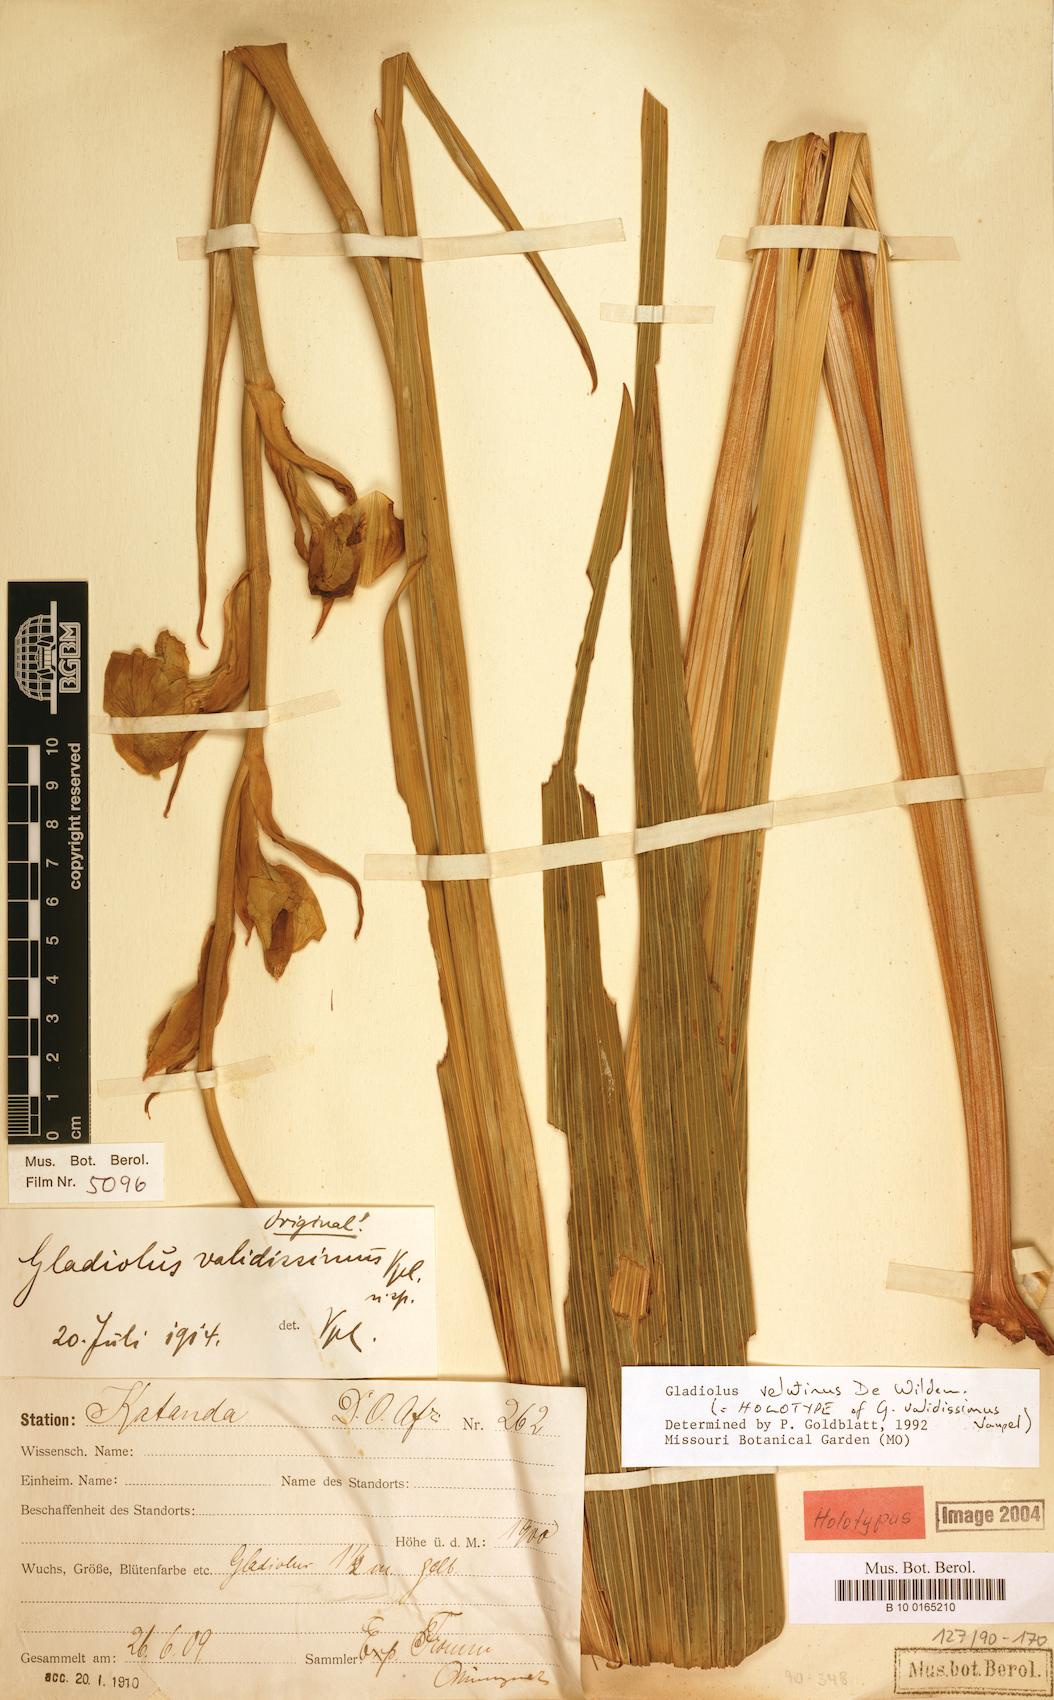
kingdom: Plantae
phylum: Tracheophyta
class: Liliopsida
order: Asparagales
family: Iridaceae
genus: Gladiolus
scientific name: Gladiolus velutinus
